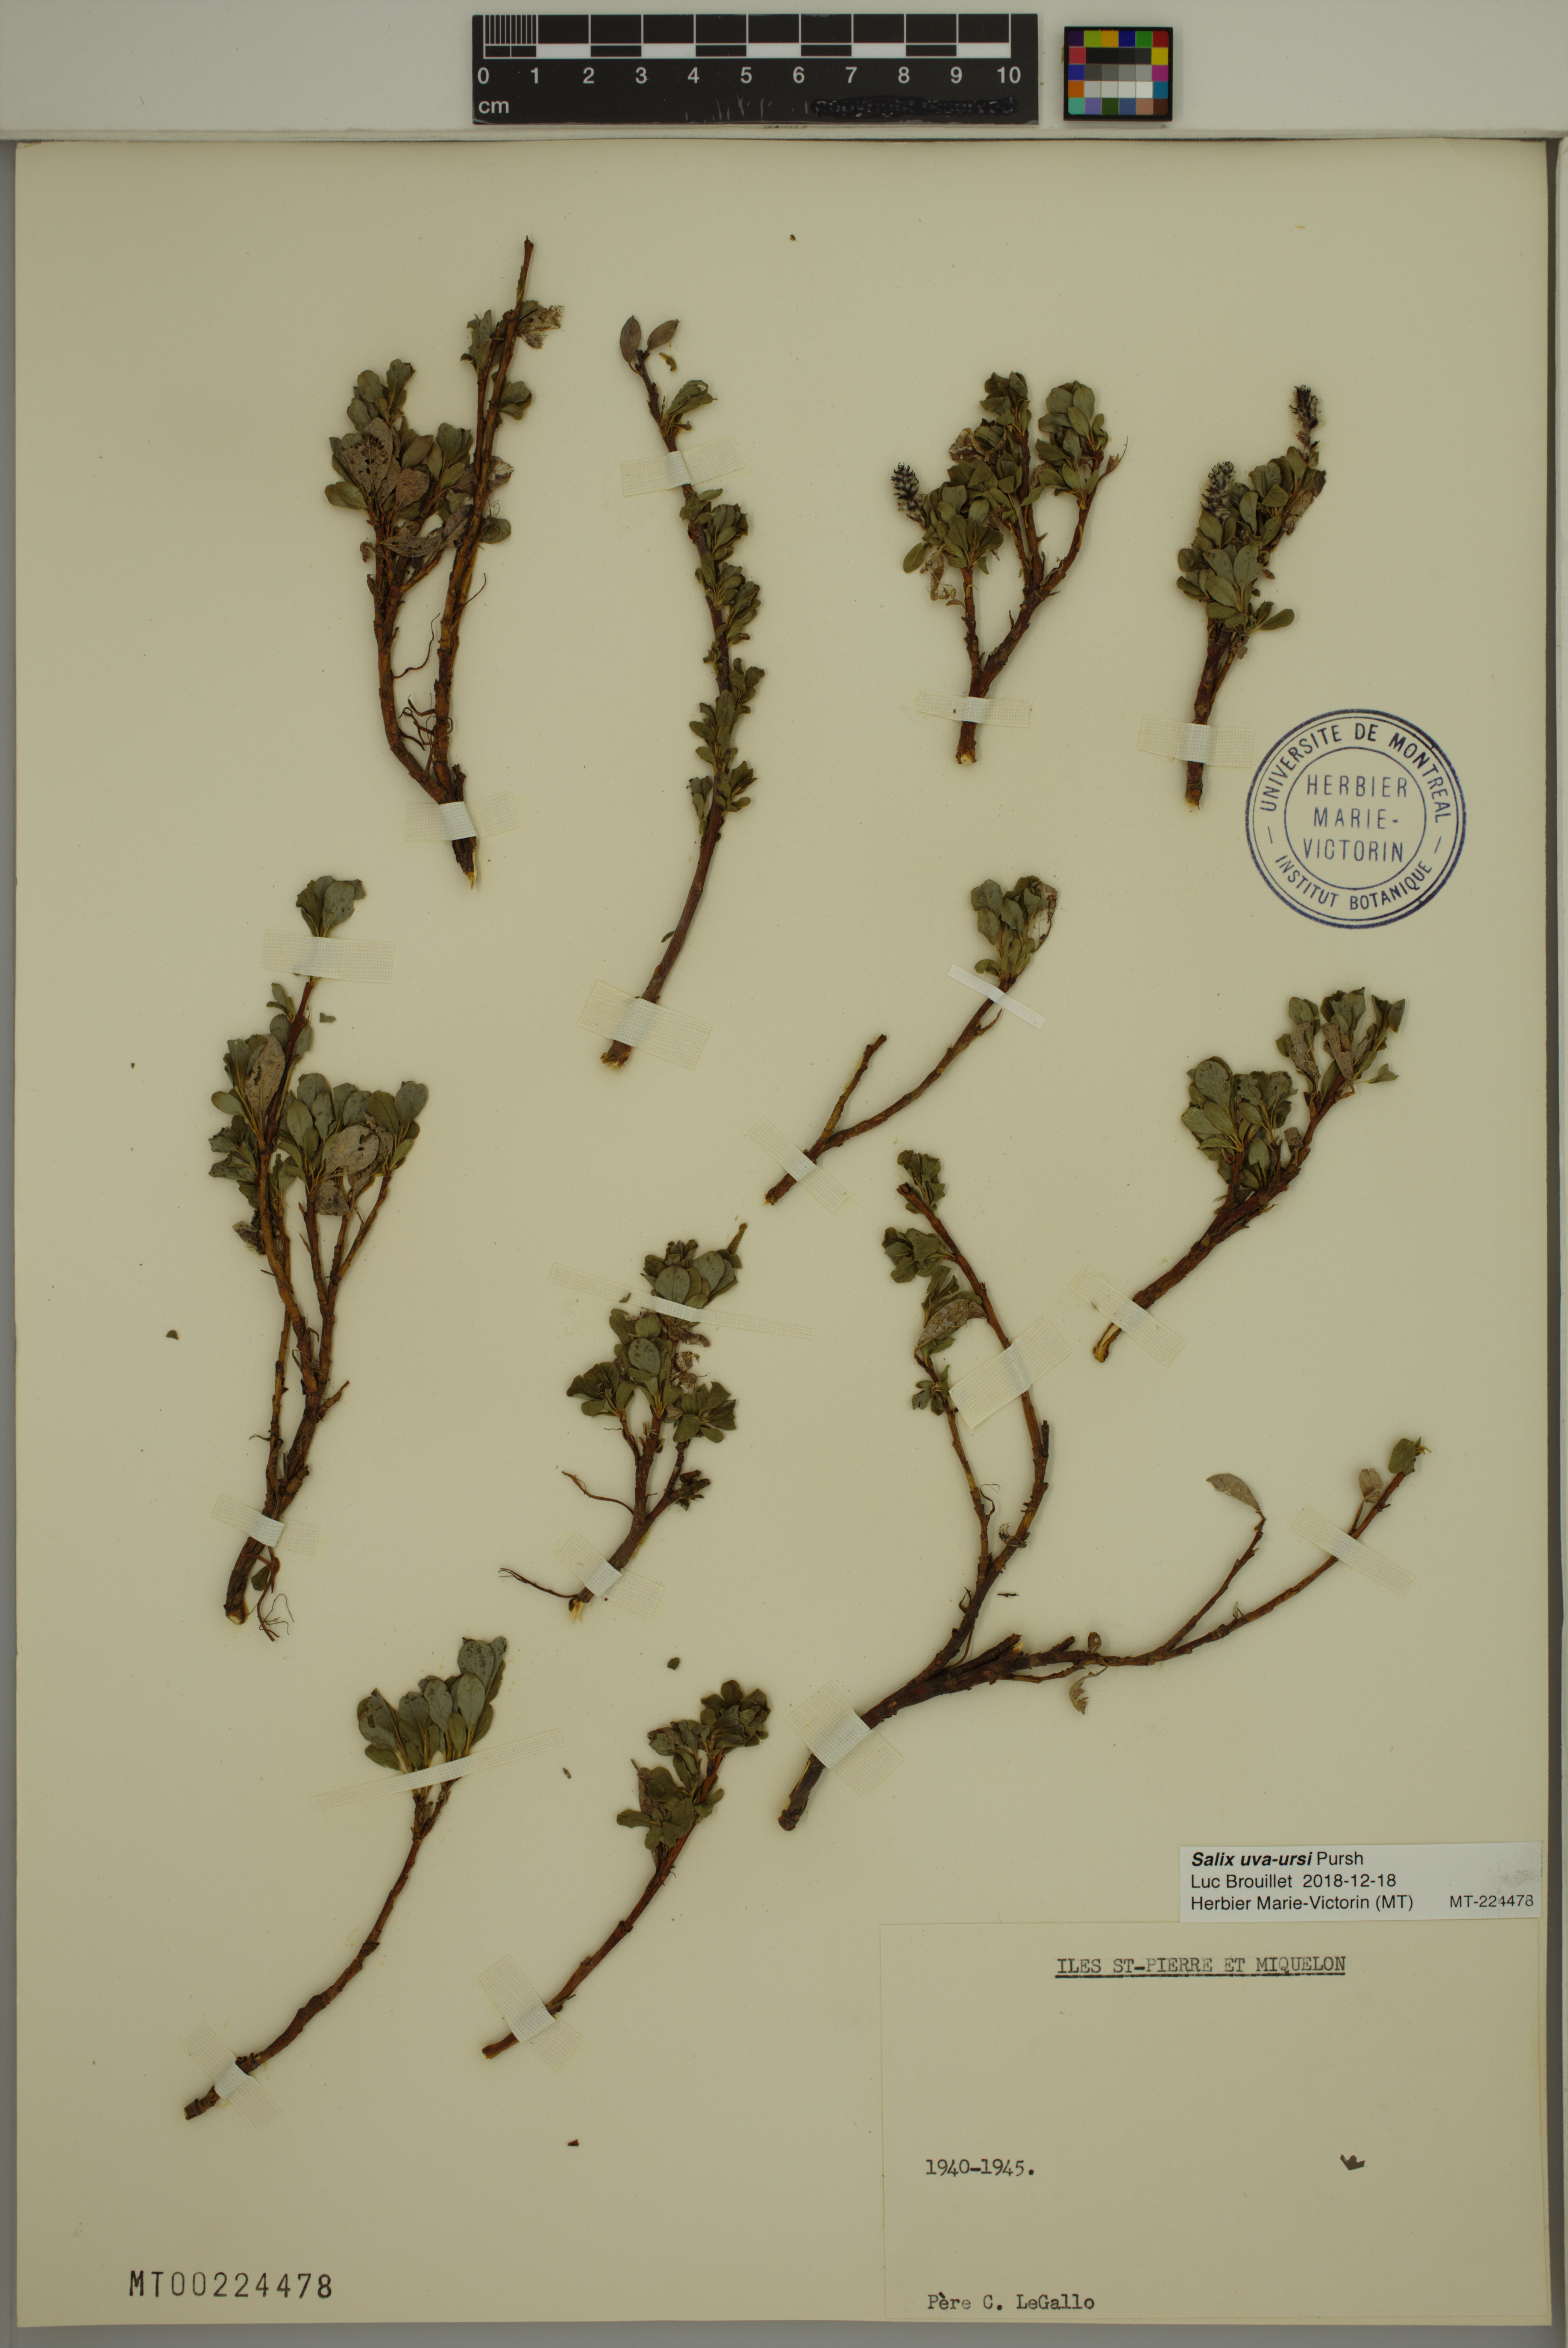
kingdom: Plantae
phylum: Tracheophyta
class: Magnoliopsida
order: Malpighiales
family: Salicaceae
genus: Salix
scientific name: Salix uva-ursi
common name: Bearberry willow
